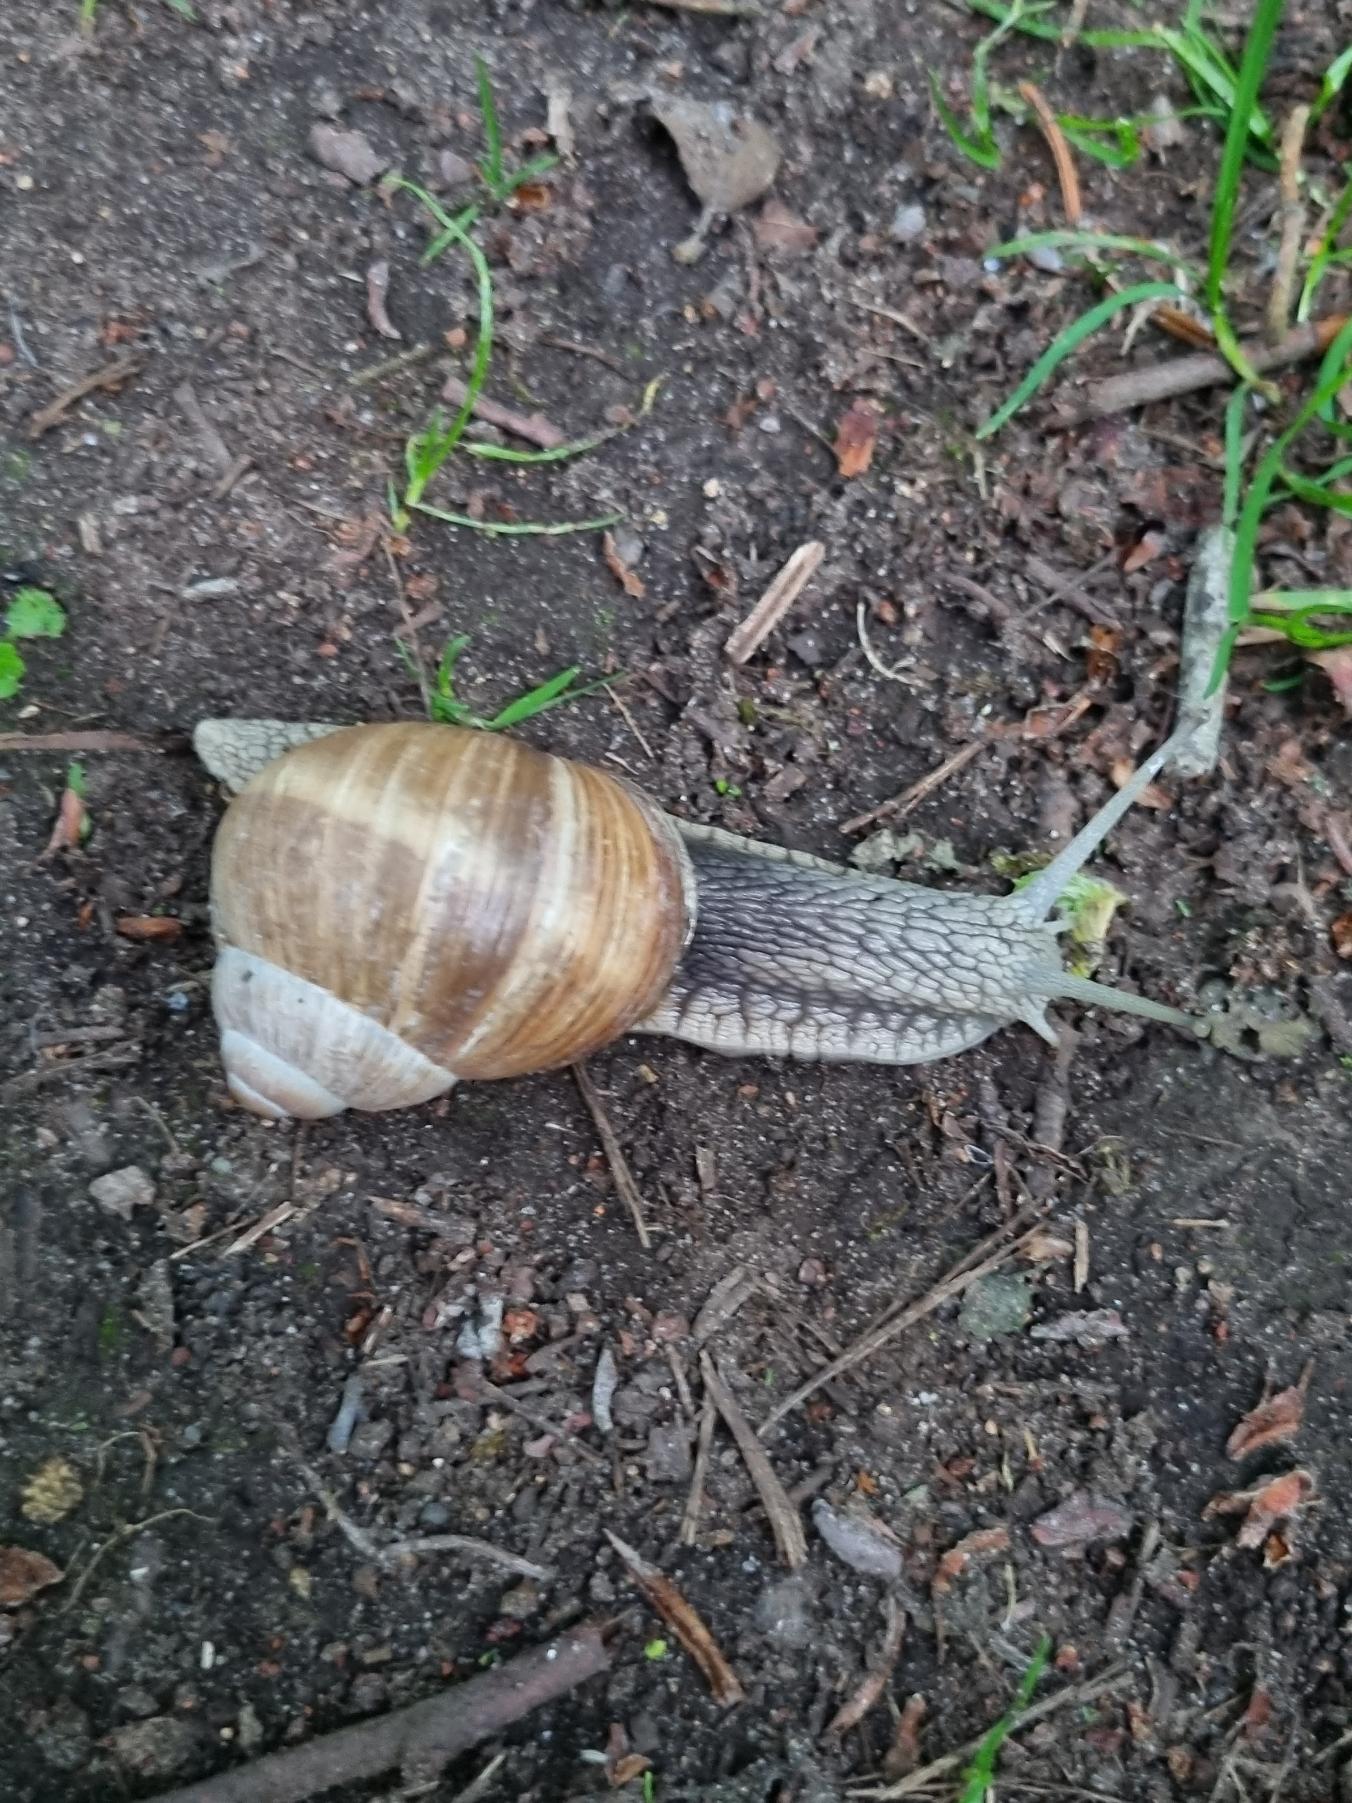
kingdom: Animalia
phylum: Mollusca
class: Gastropoda
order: Stylommatophora
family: Helicidae
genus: Helix
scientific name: Helix pomatia
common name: Vinbjergsnegl
